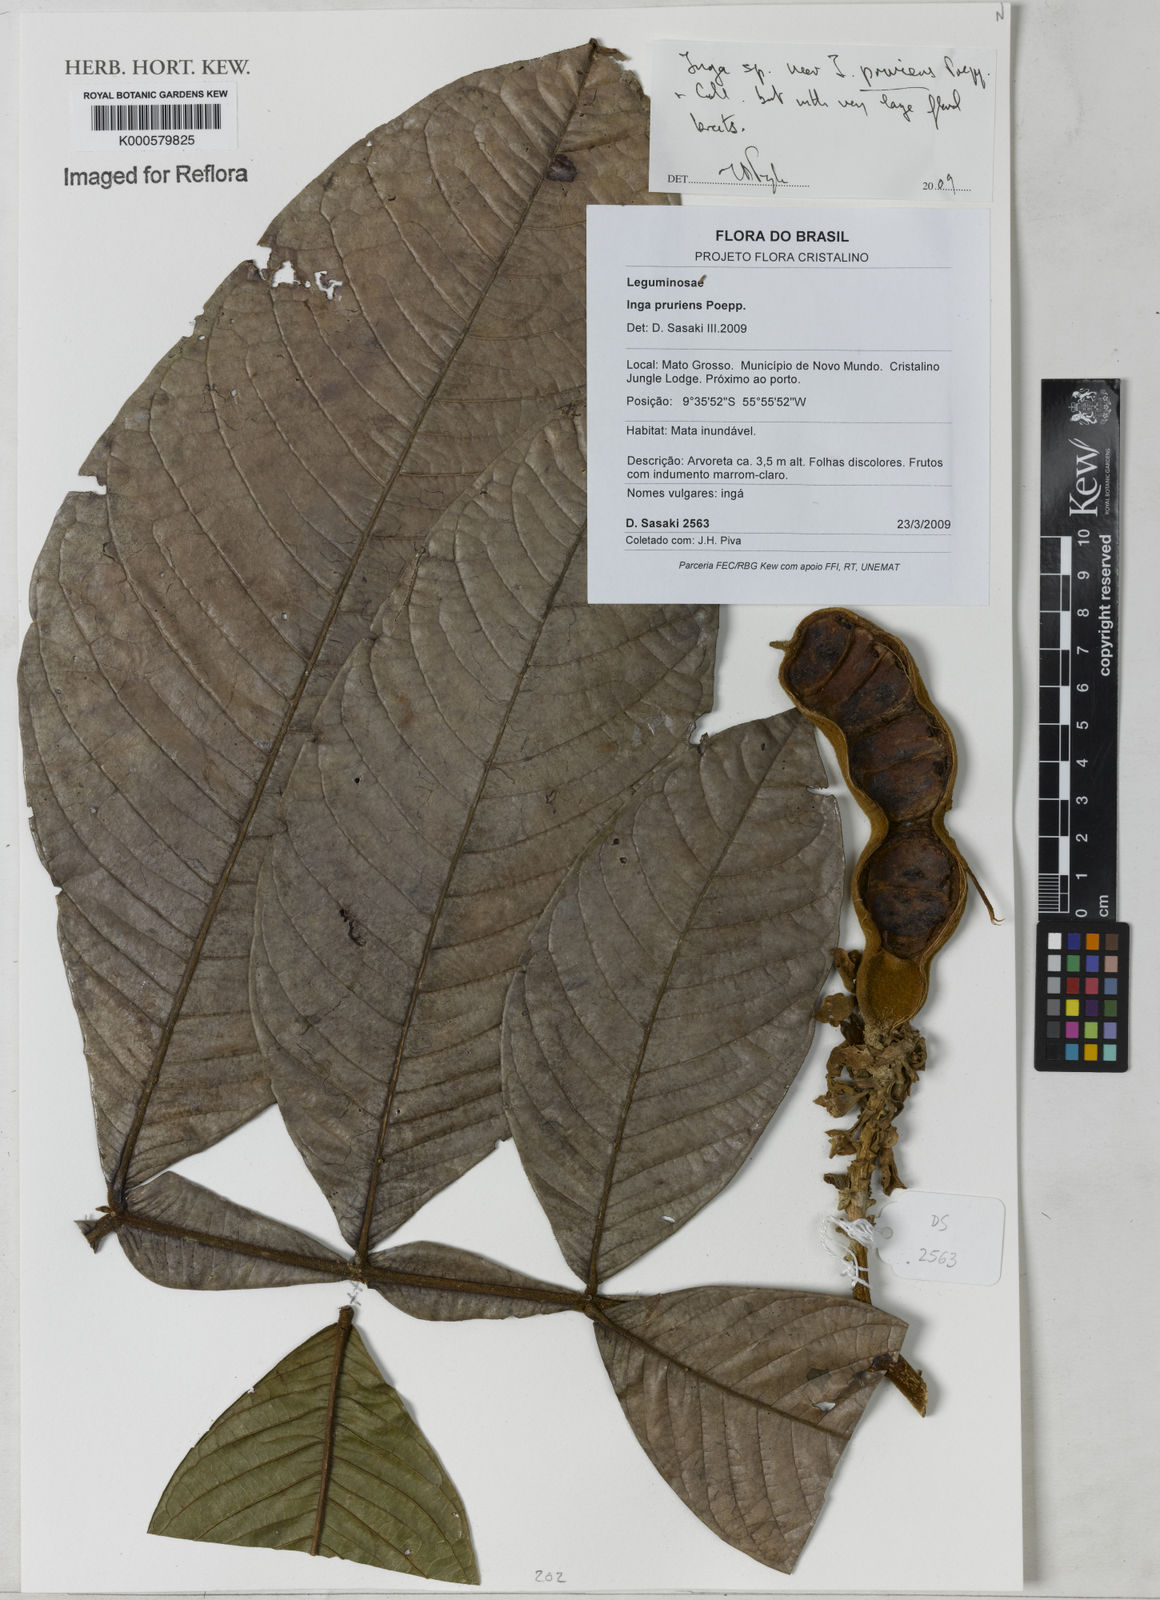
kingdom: Plantae
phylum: Tracheophyta
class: Magnoliopsida
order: Fabales
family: Fabaceae
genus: Inga
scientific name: Inga pruriens
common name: Howler monkey inga
